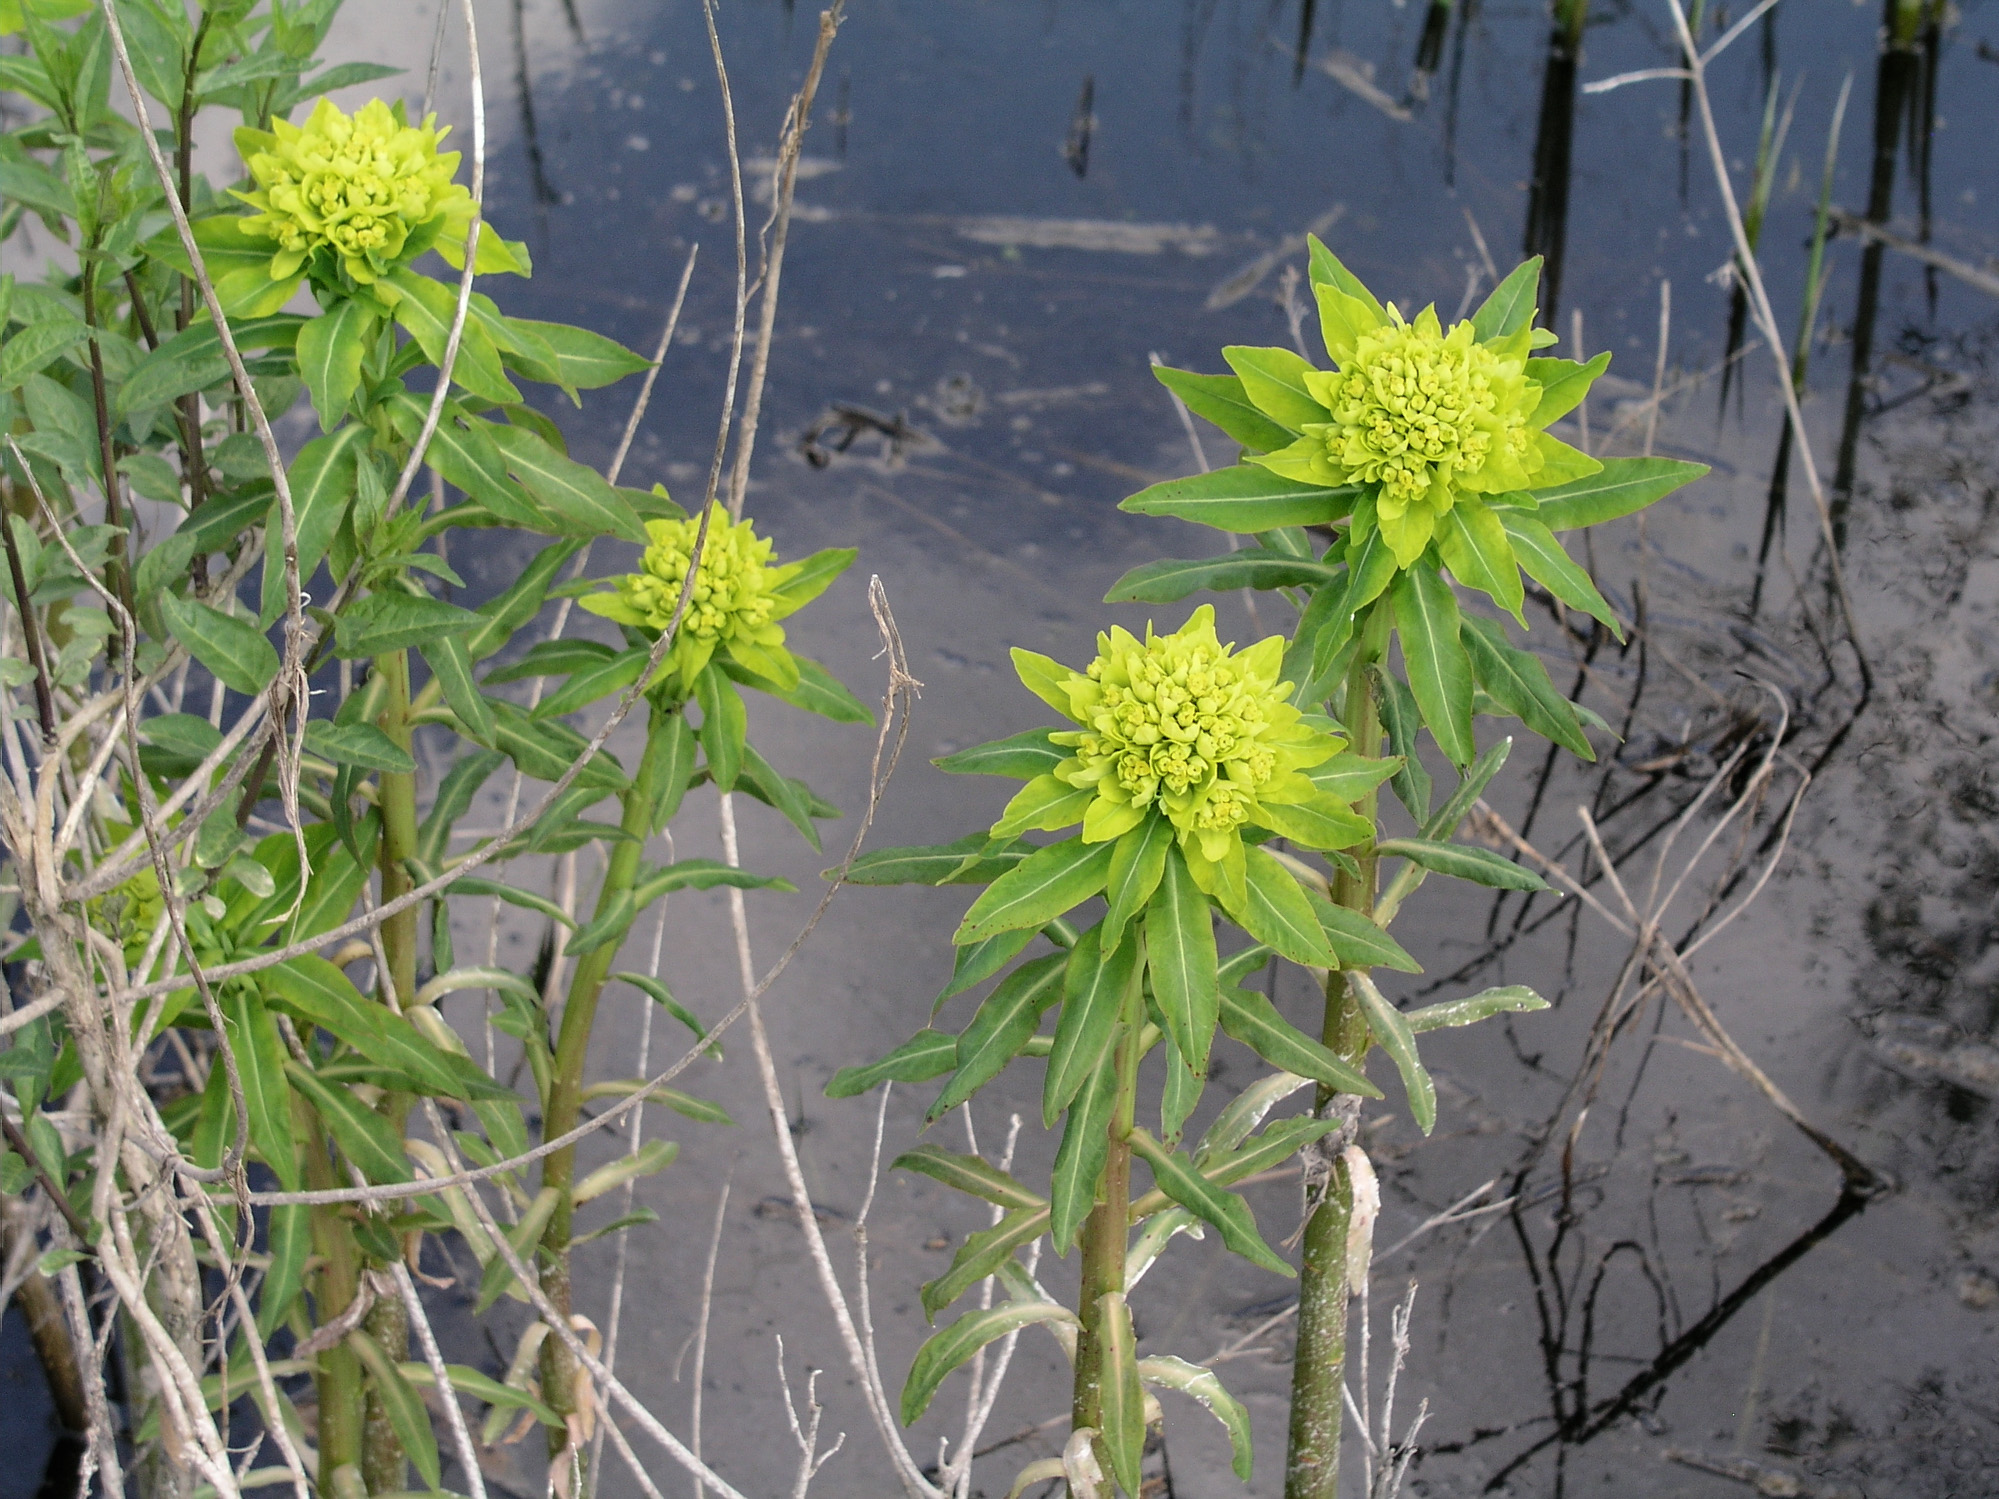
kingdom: Plantae
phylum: Tracheophyta
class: Magnoliopsida
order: Malpighiales
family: Euphorbiaceae
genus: Euphorbia
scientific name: Euphorbia palustris
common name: Marsh spurge
